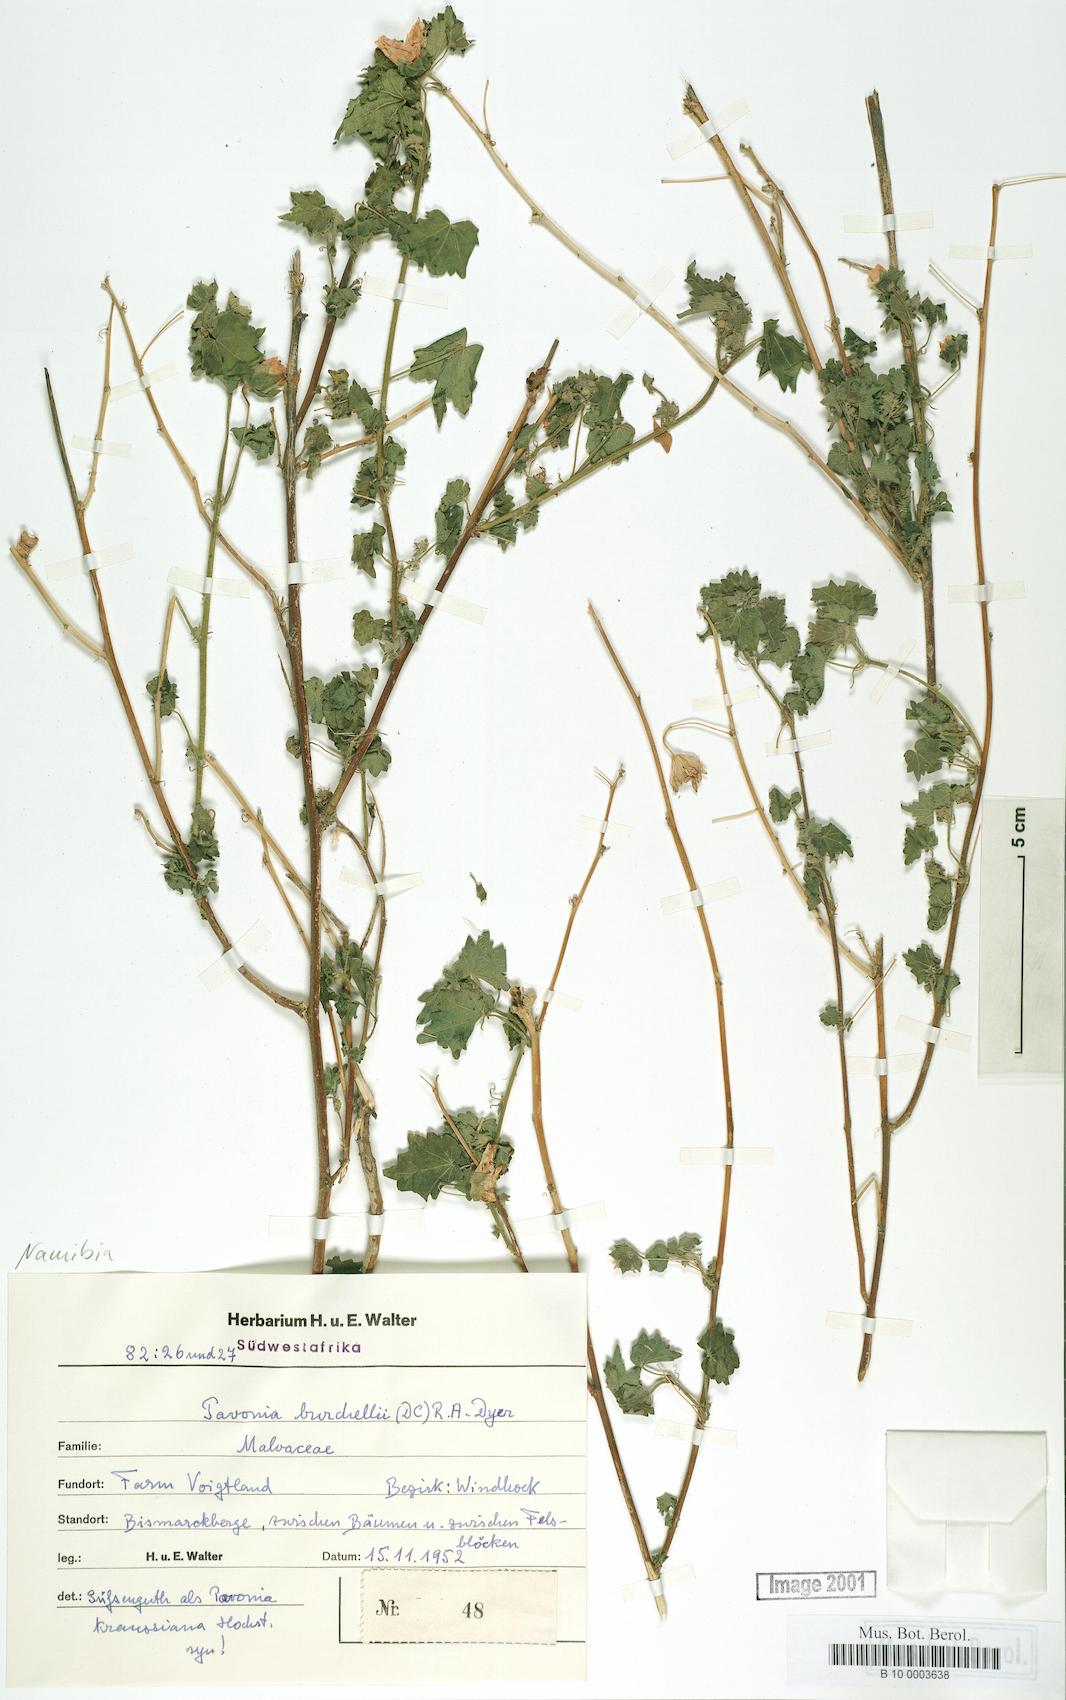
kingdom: Plantae
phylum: Tracheophyta
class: Magnoliopsida
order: Malvales
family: Malvaceae
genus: Pavonia
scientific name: Pavonia burchellii
